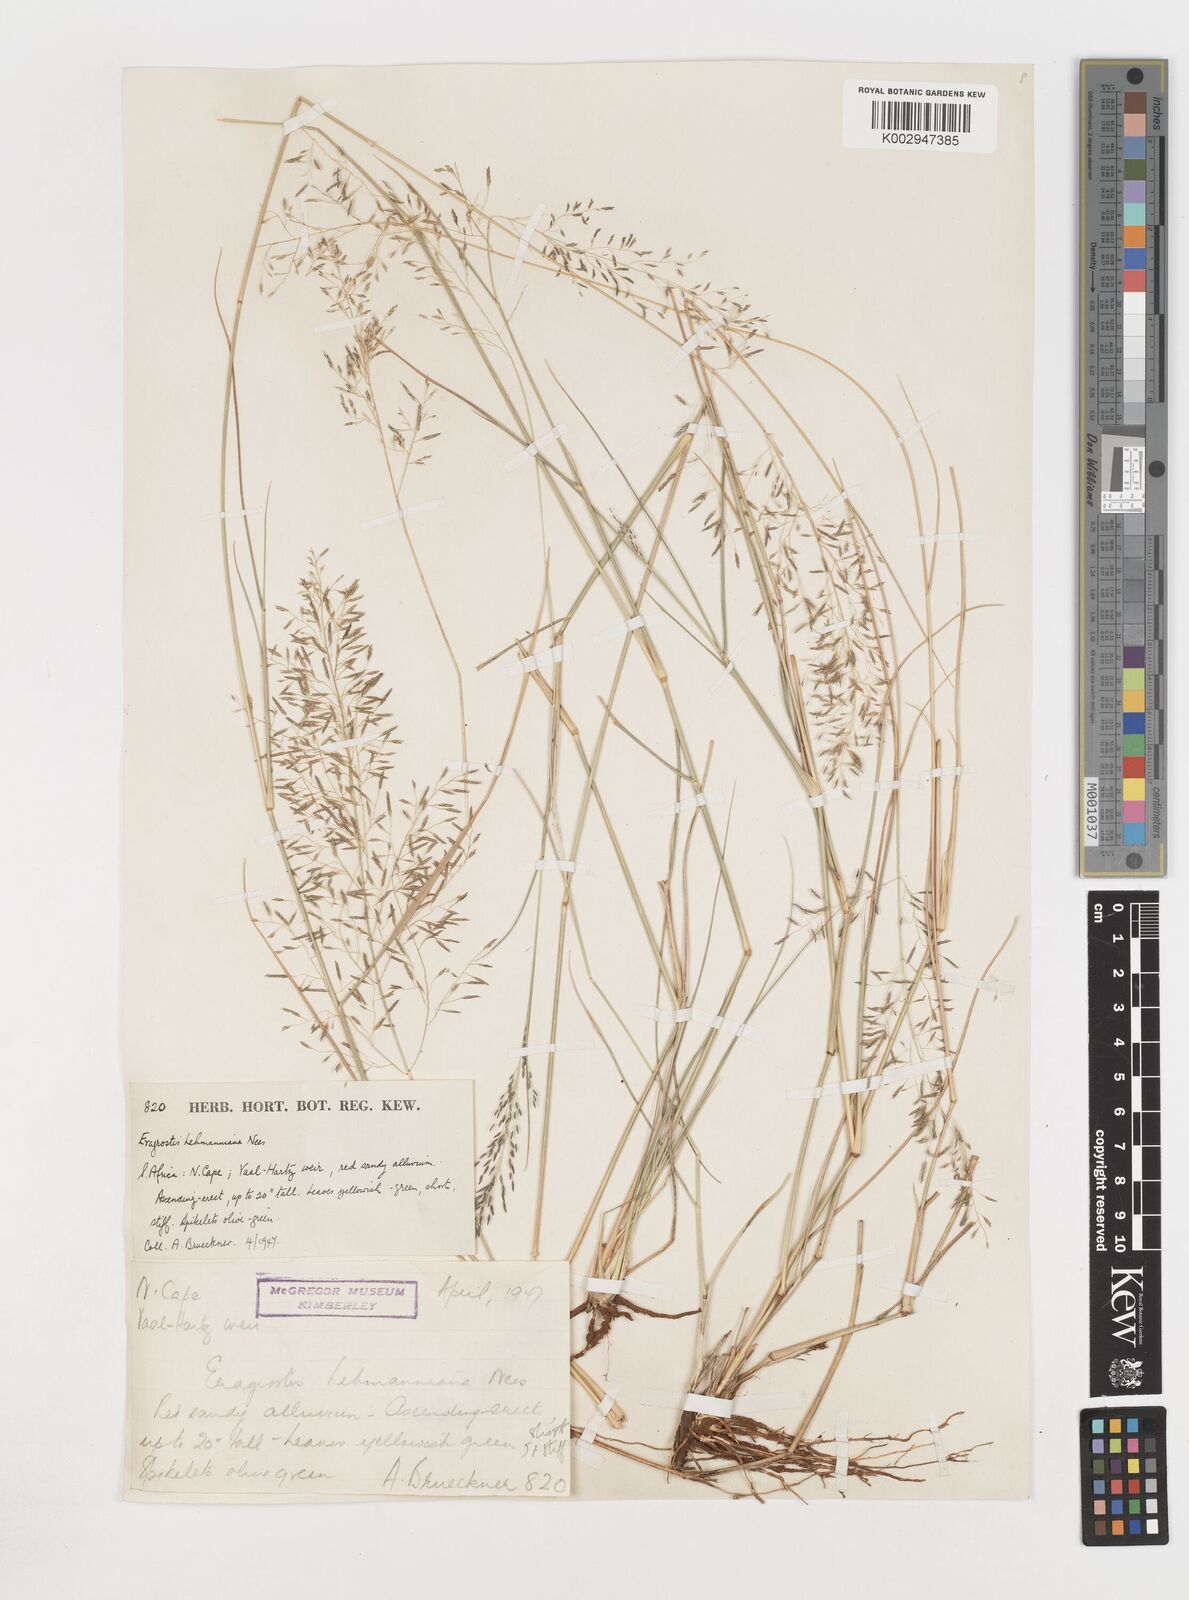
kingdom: Plantae
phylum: Tracheophyta
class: Liliopsida
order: Poales
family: Poaceae
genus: Eragrostis
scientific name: Eragrostis
